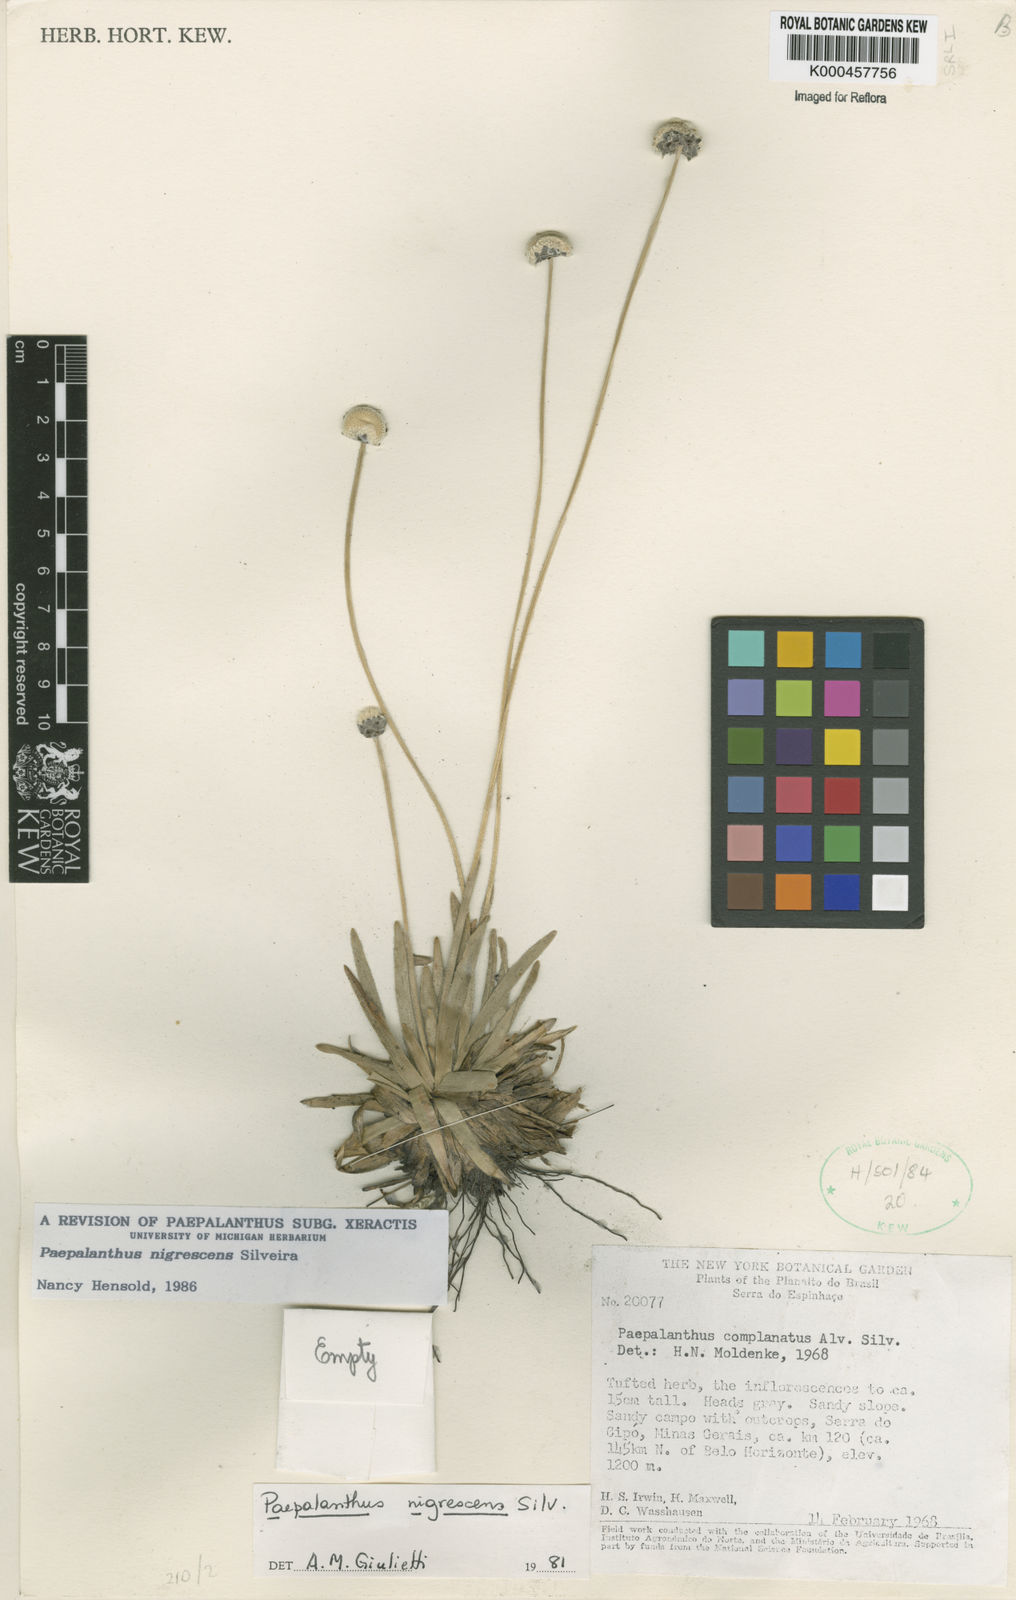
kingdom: Plantae
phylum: Tracheophyta
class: Liliopsida
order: Poales
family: Eriocaulaceae
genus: Paepalanthus
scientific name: Paepalanthus nigrescens
